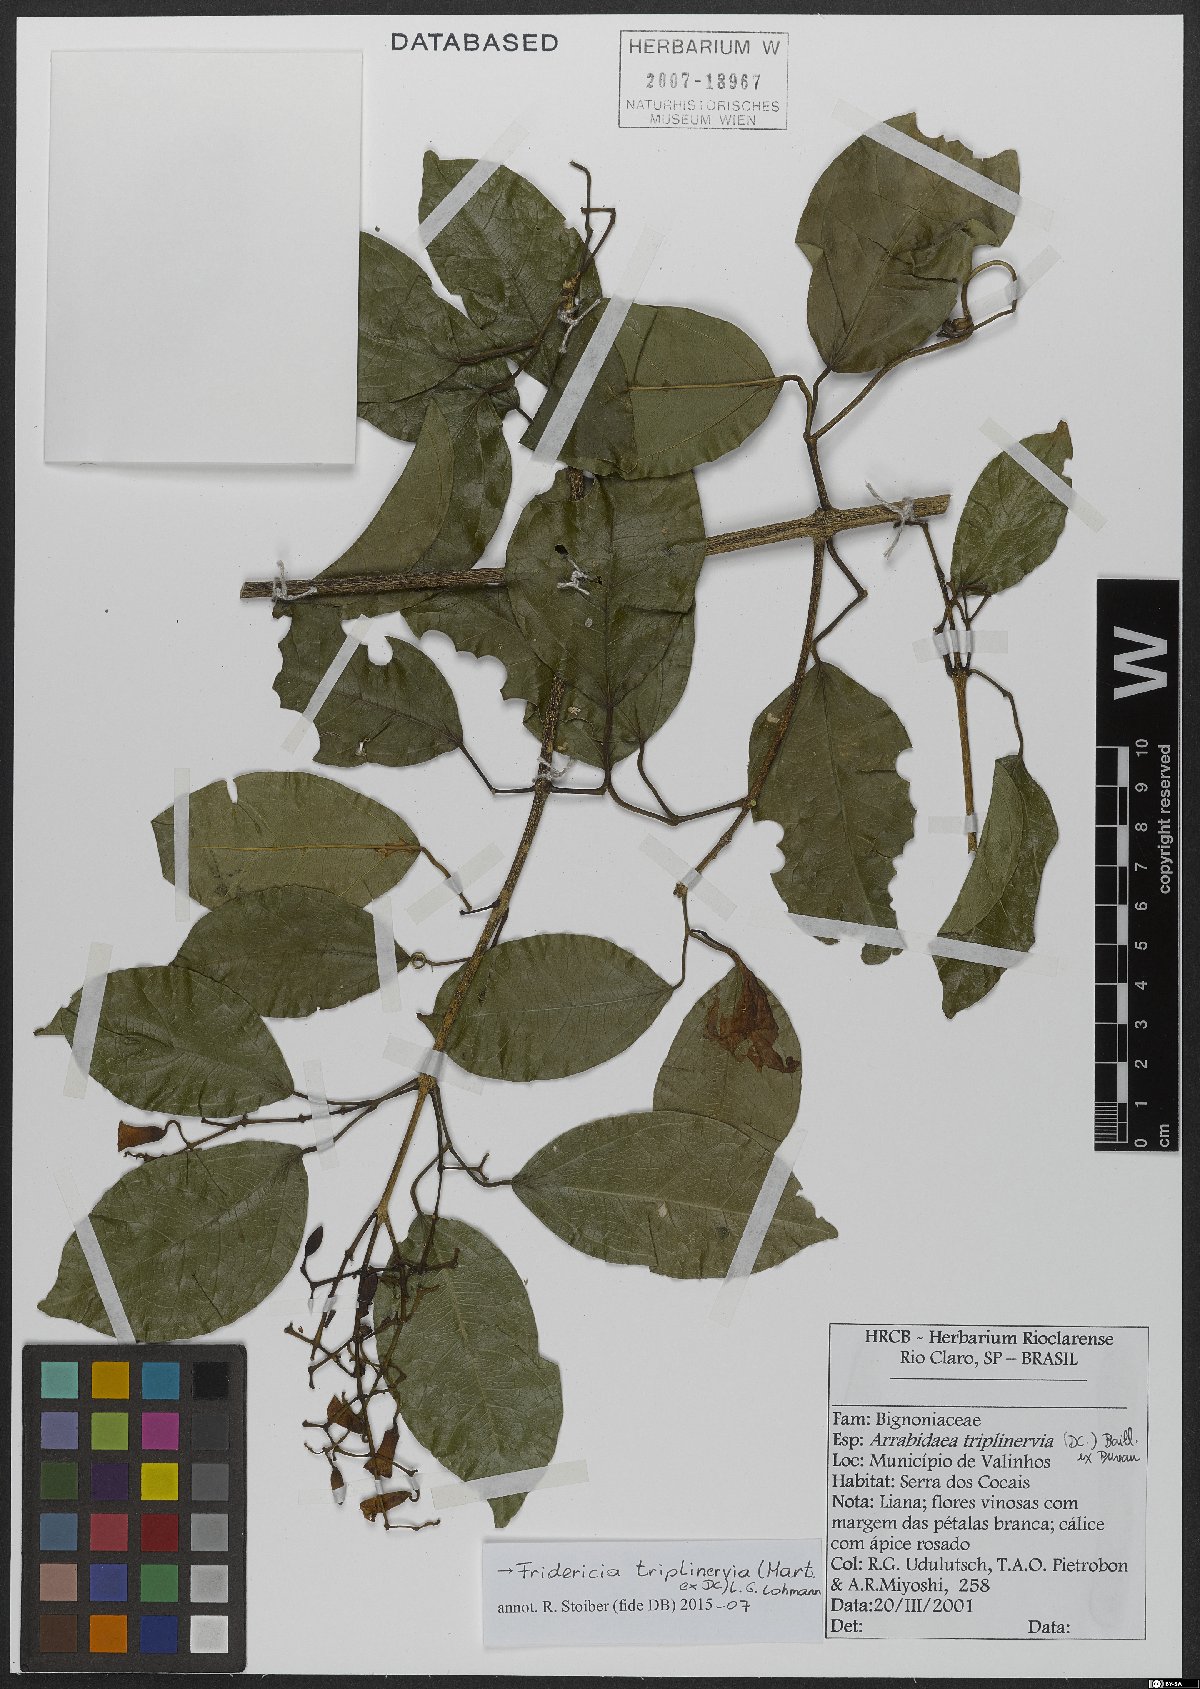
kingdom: Plantae
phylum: Tracheophyta
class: Magnoliopsida
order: Lamiales
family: Bignoniaceae
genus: Fridericia
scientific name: Fridericia triplinervia
